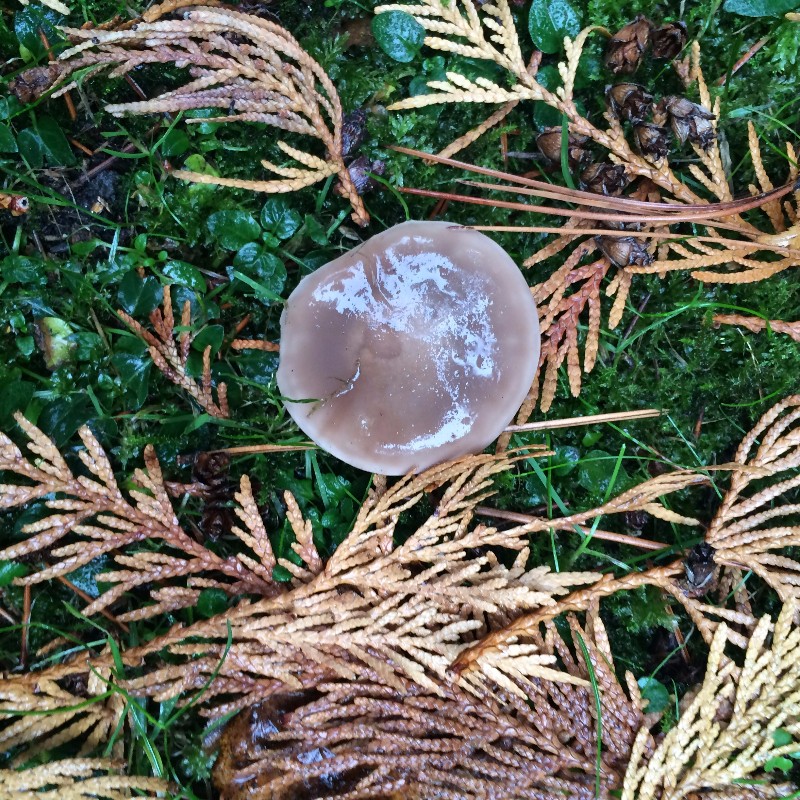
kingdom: Fungi
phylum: Basidiomycota
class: Agaricomycetes
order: Agaricales
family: Tricholomataceae
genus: Lepista
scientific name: Lepista personata
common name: bleg hekseringshat
